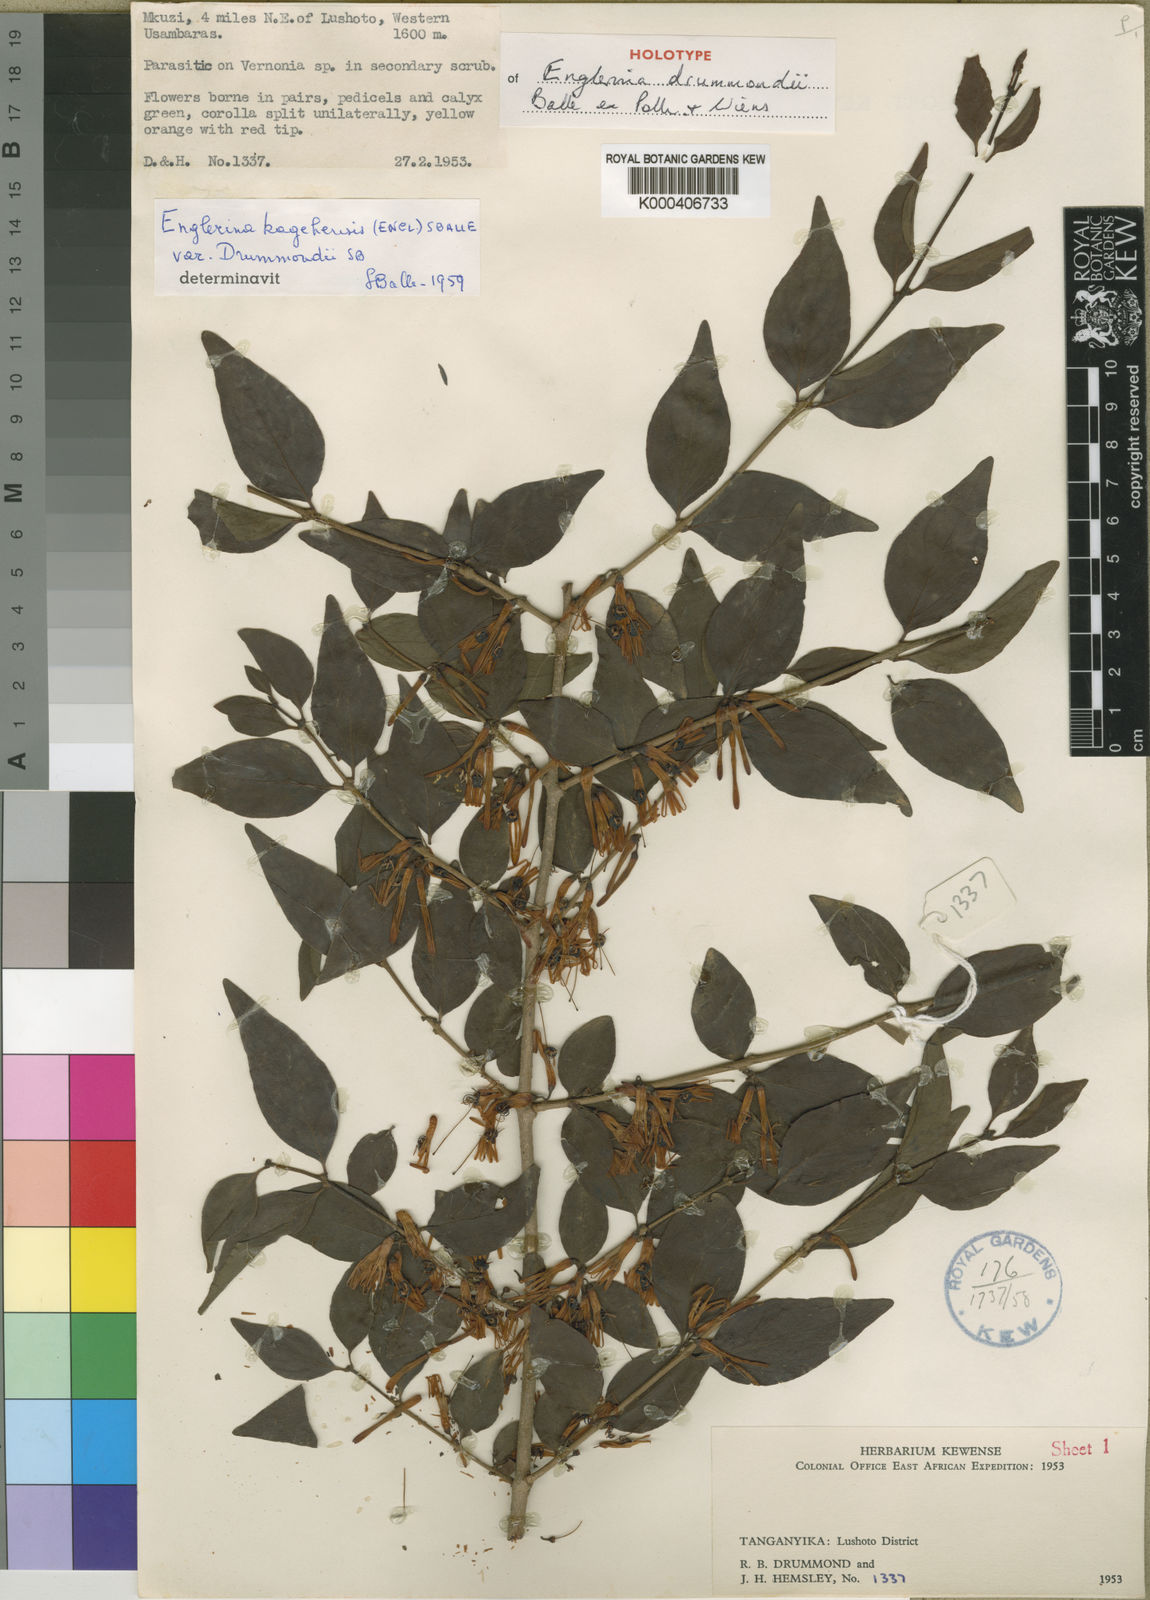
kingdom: Plantae
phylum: Tracheophyta
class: Magnoliopsida
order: Santalales
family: Loranthaceae
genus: Englerina
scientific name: Englerina drummondii
